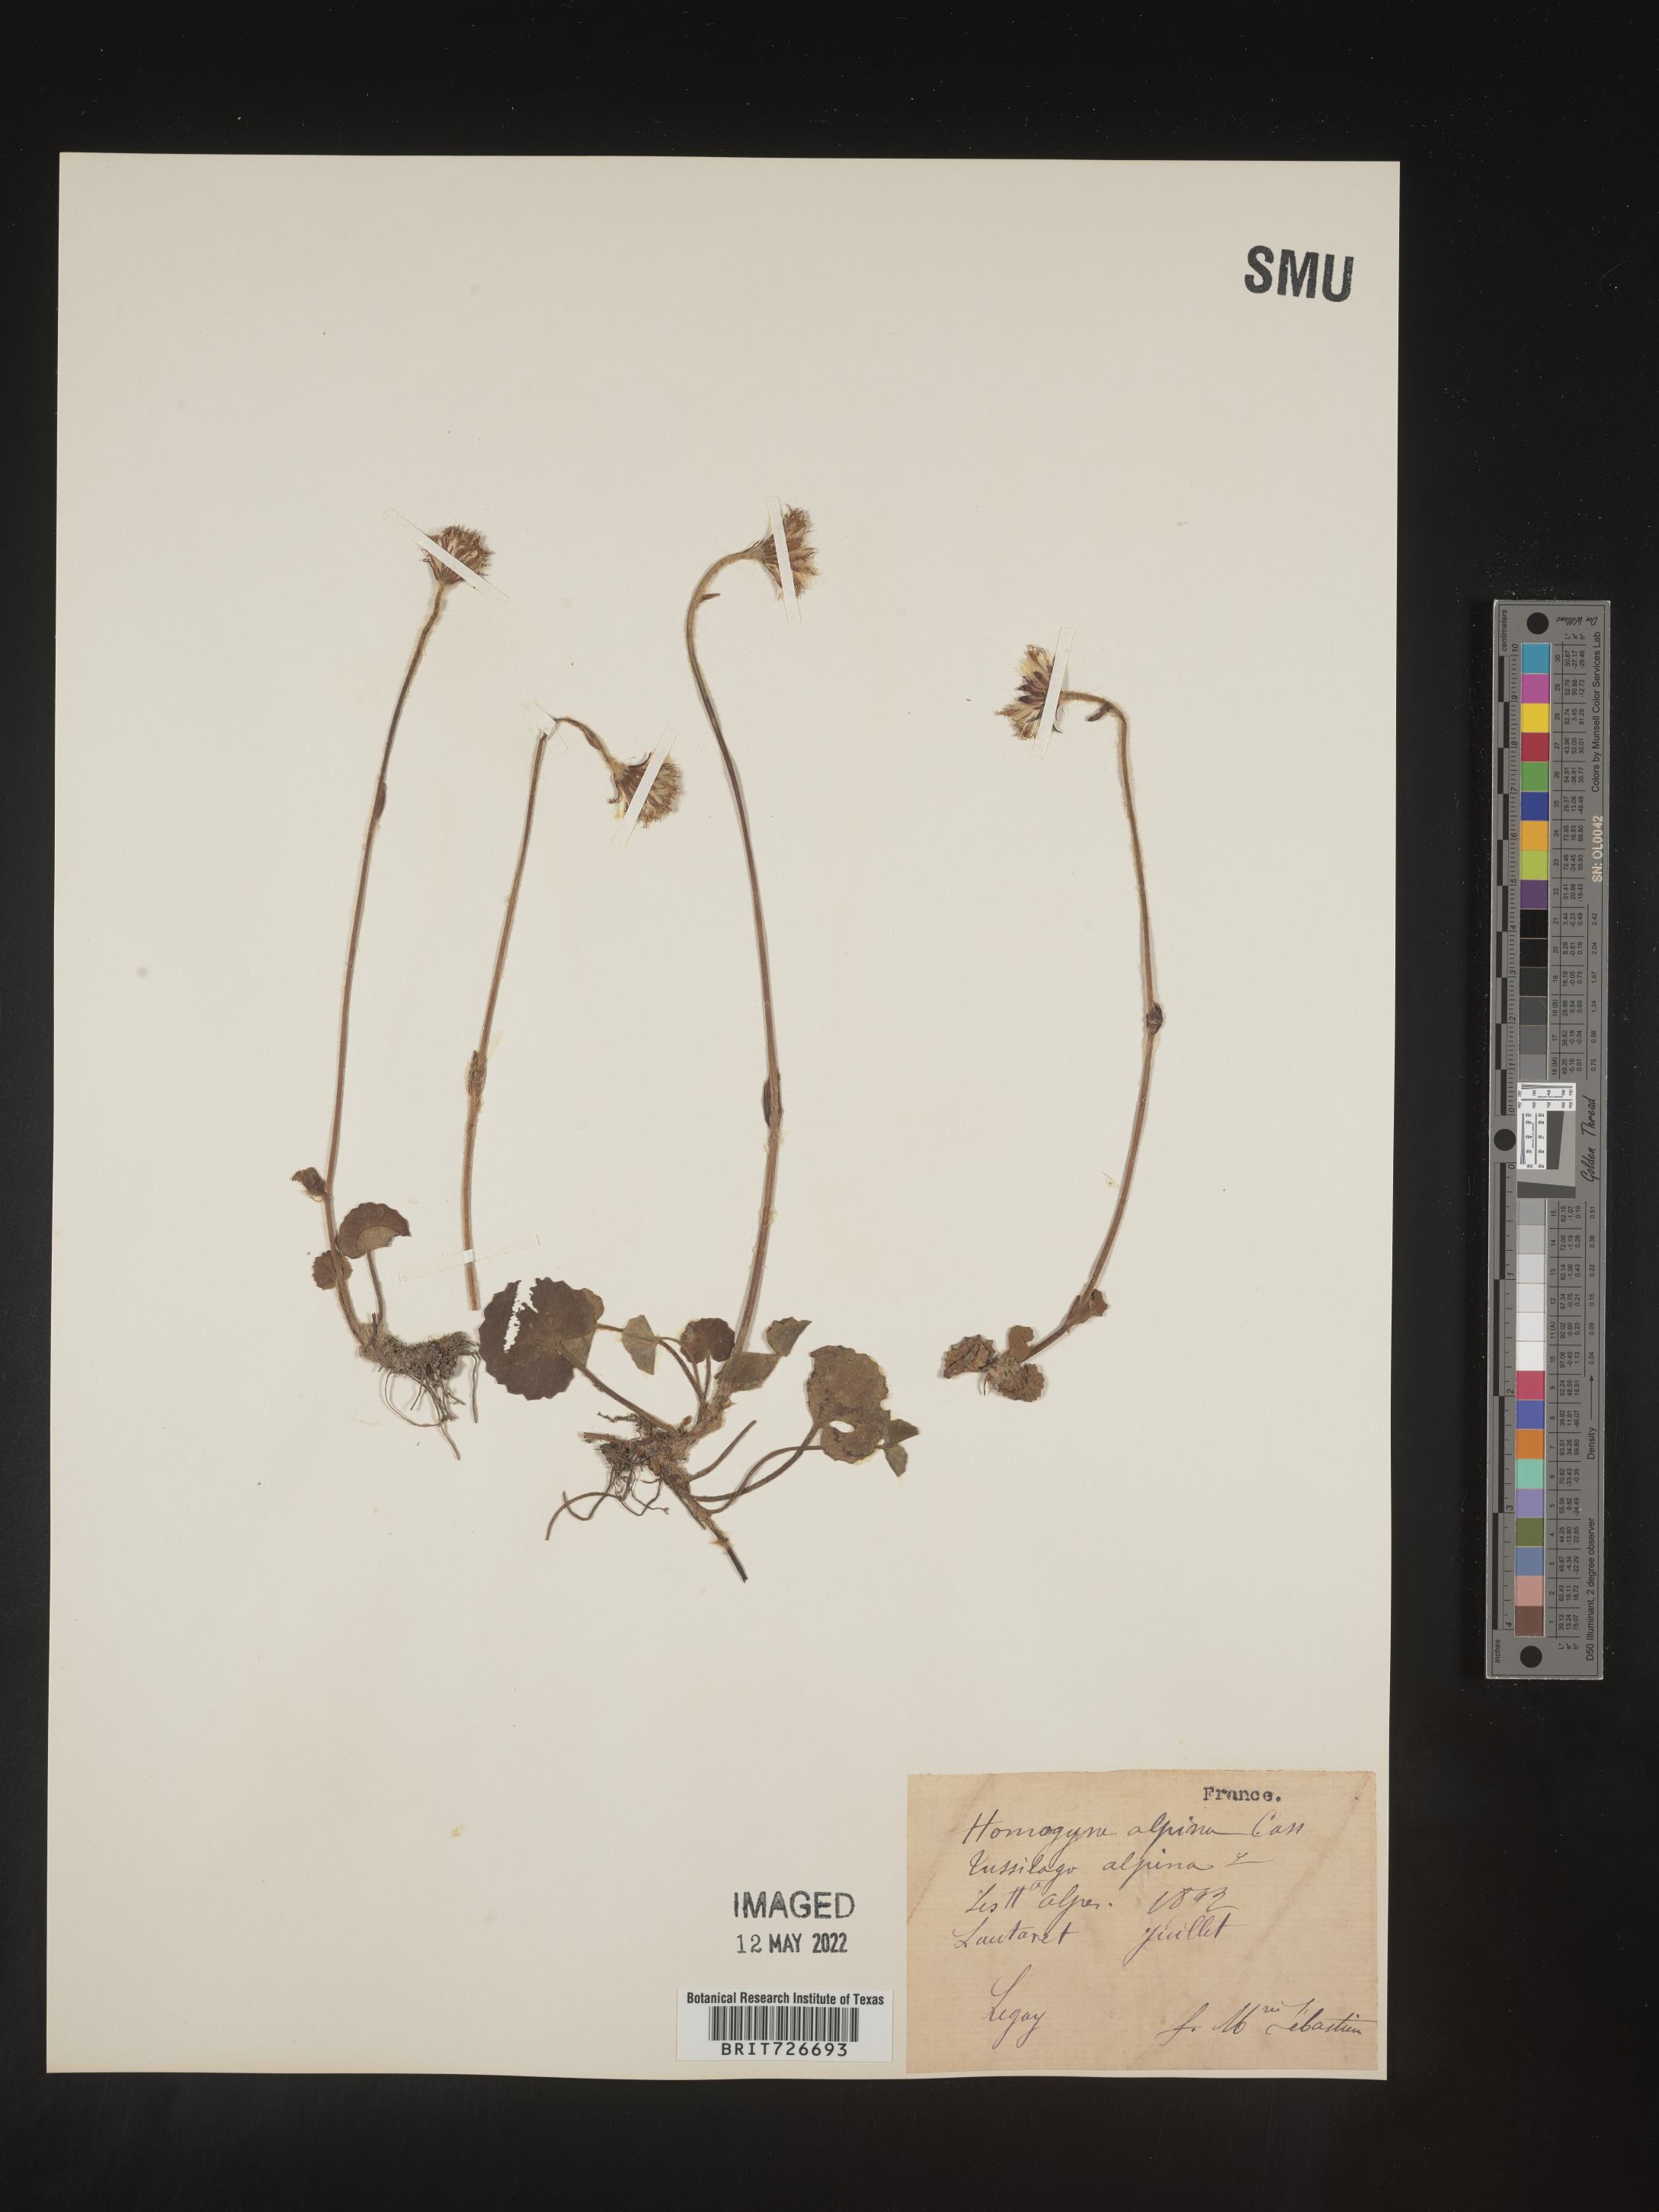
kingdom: Plantae
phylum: Tracheophyta
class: Magnoliopsida
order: Asterales
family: Asteraceae
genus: Homogyne
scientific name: Homogyne
